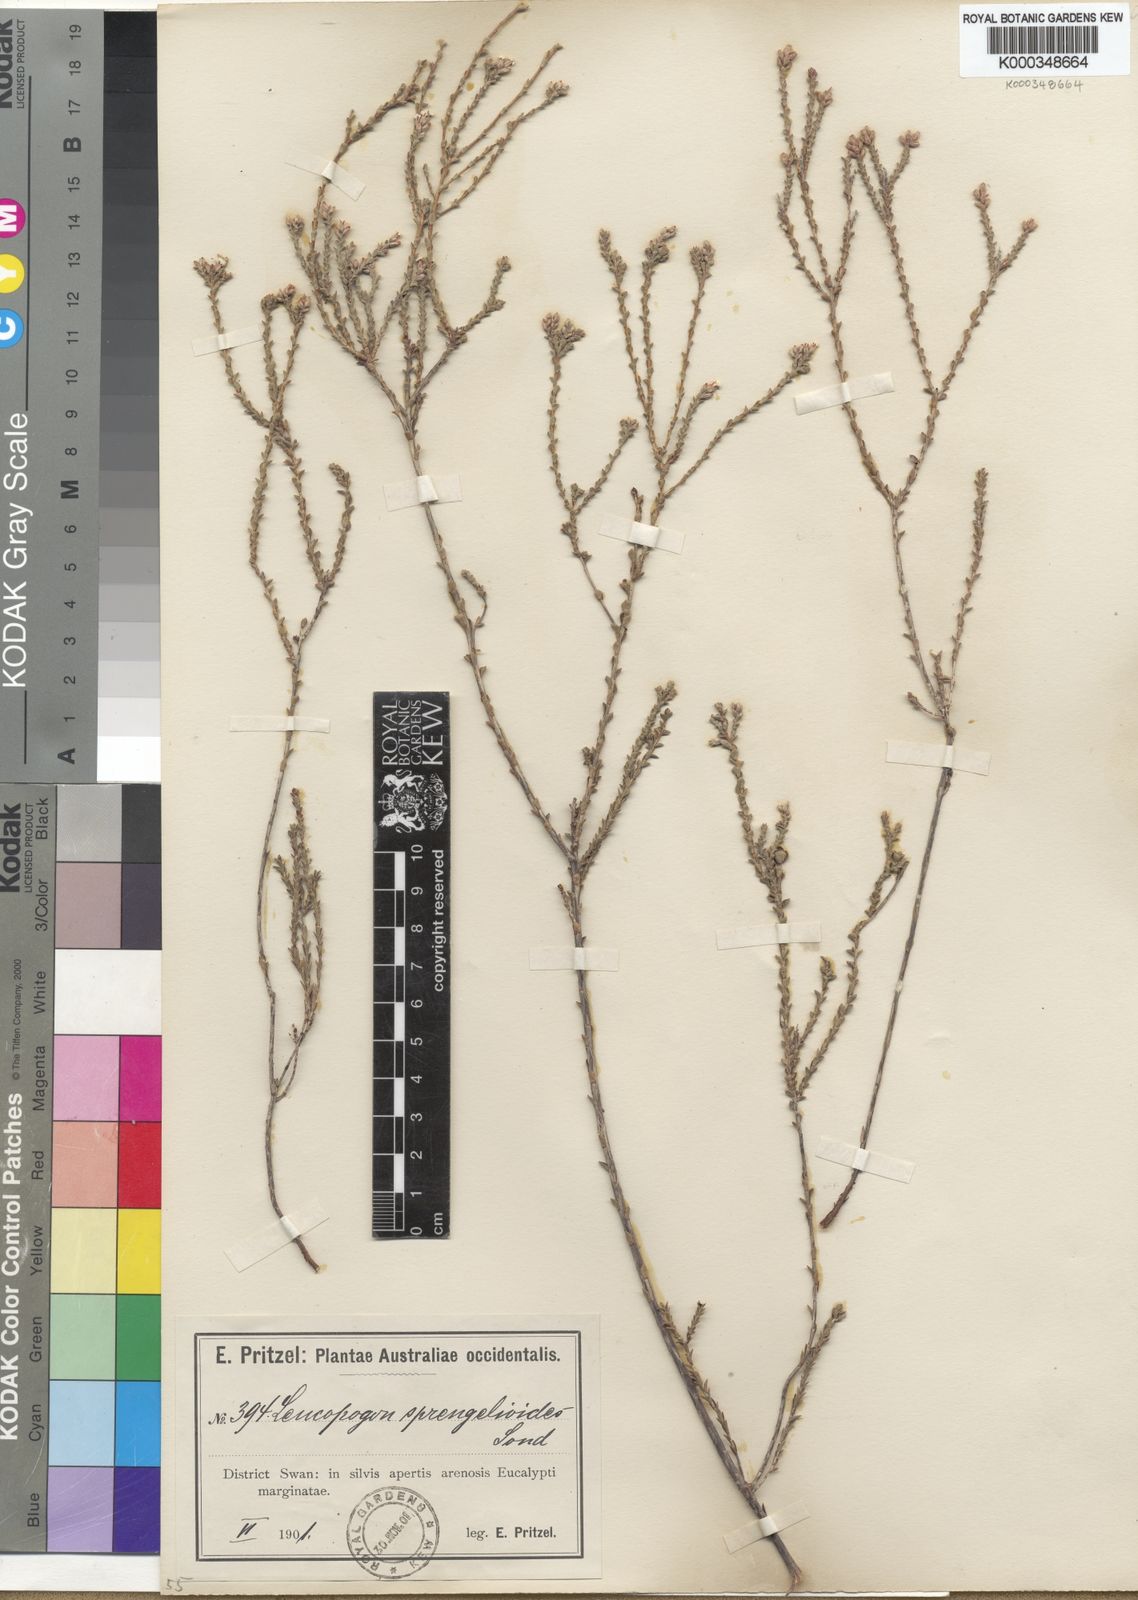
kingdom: Plantae
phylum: Tracheophyta
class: Magnoliopsida
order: Ericales
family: Ericaceae
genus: Leucopogon
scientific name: Leucopogon sprengelioides
